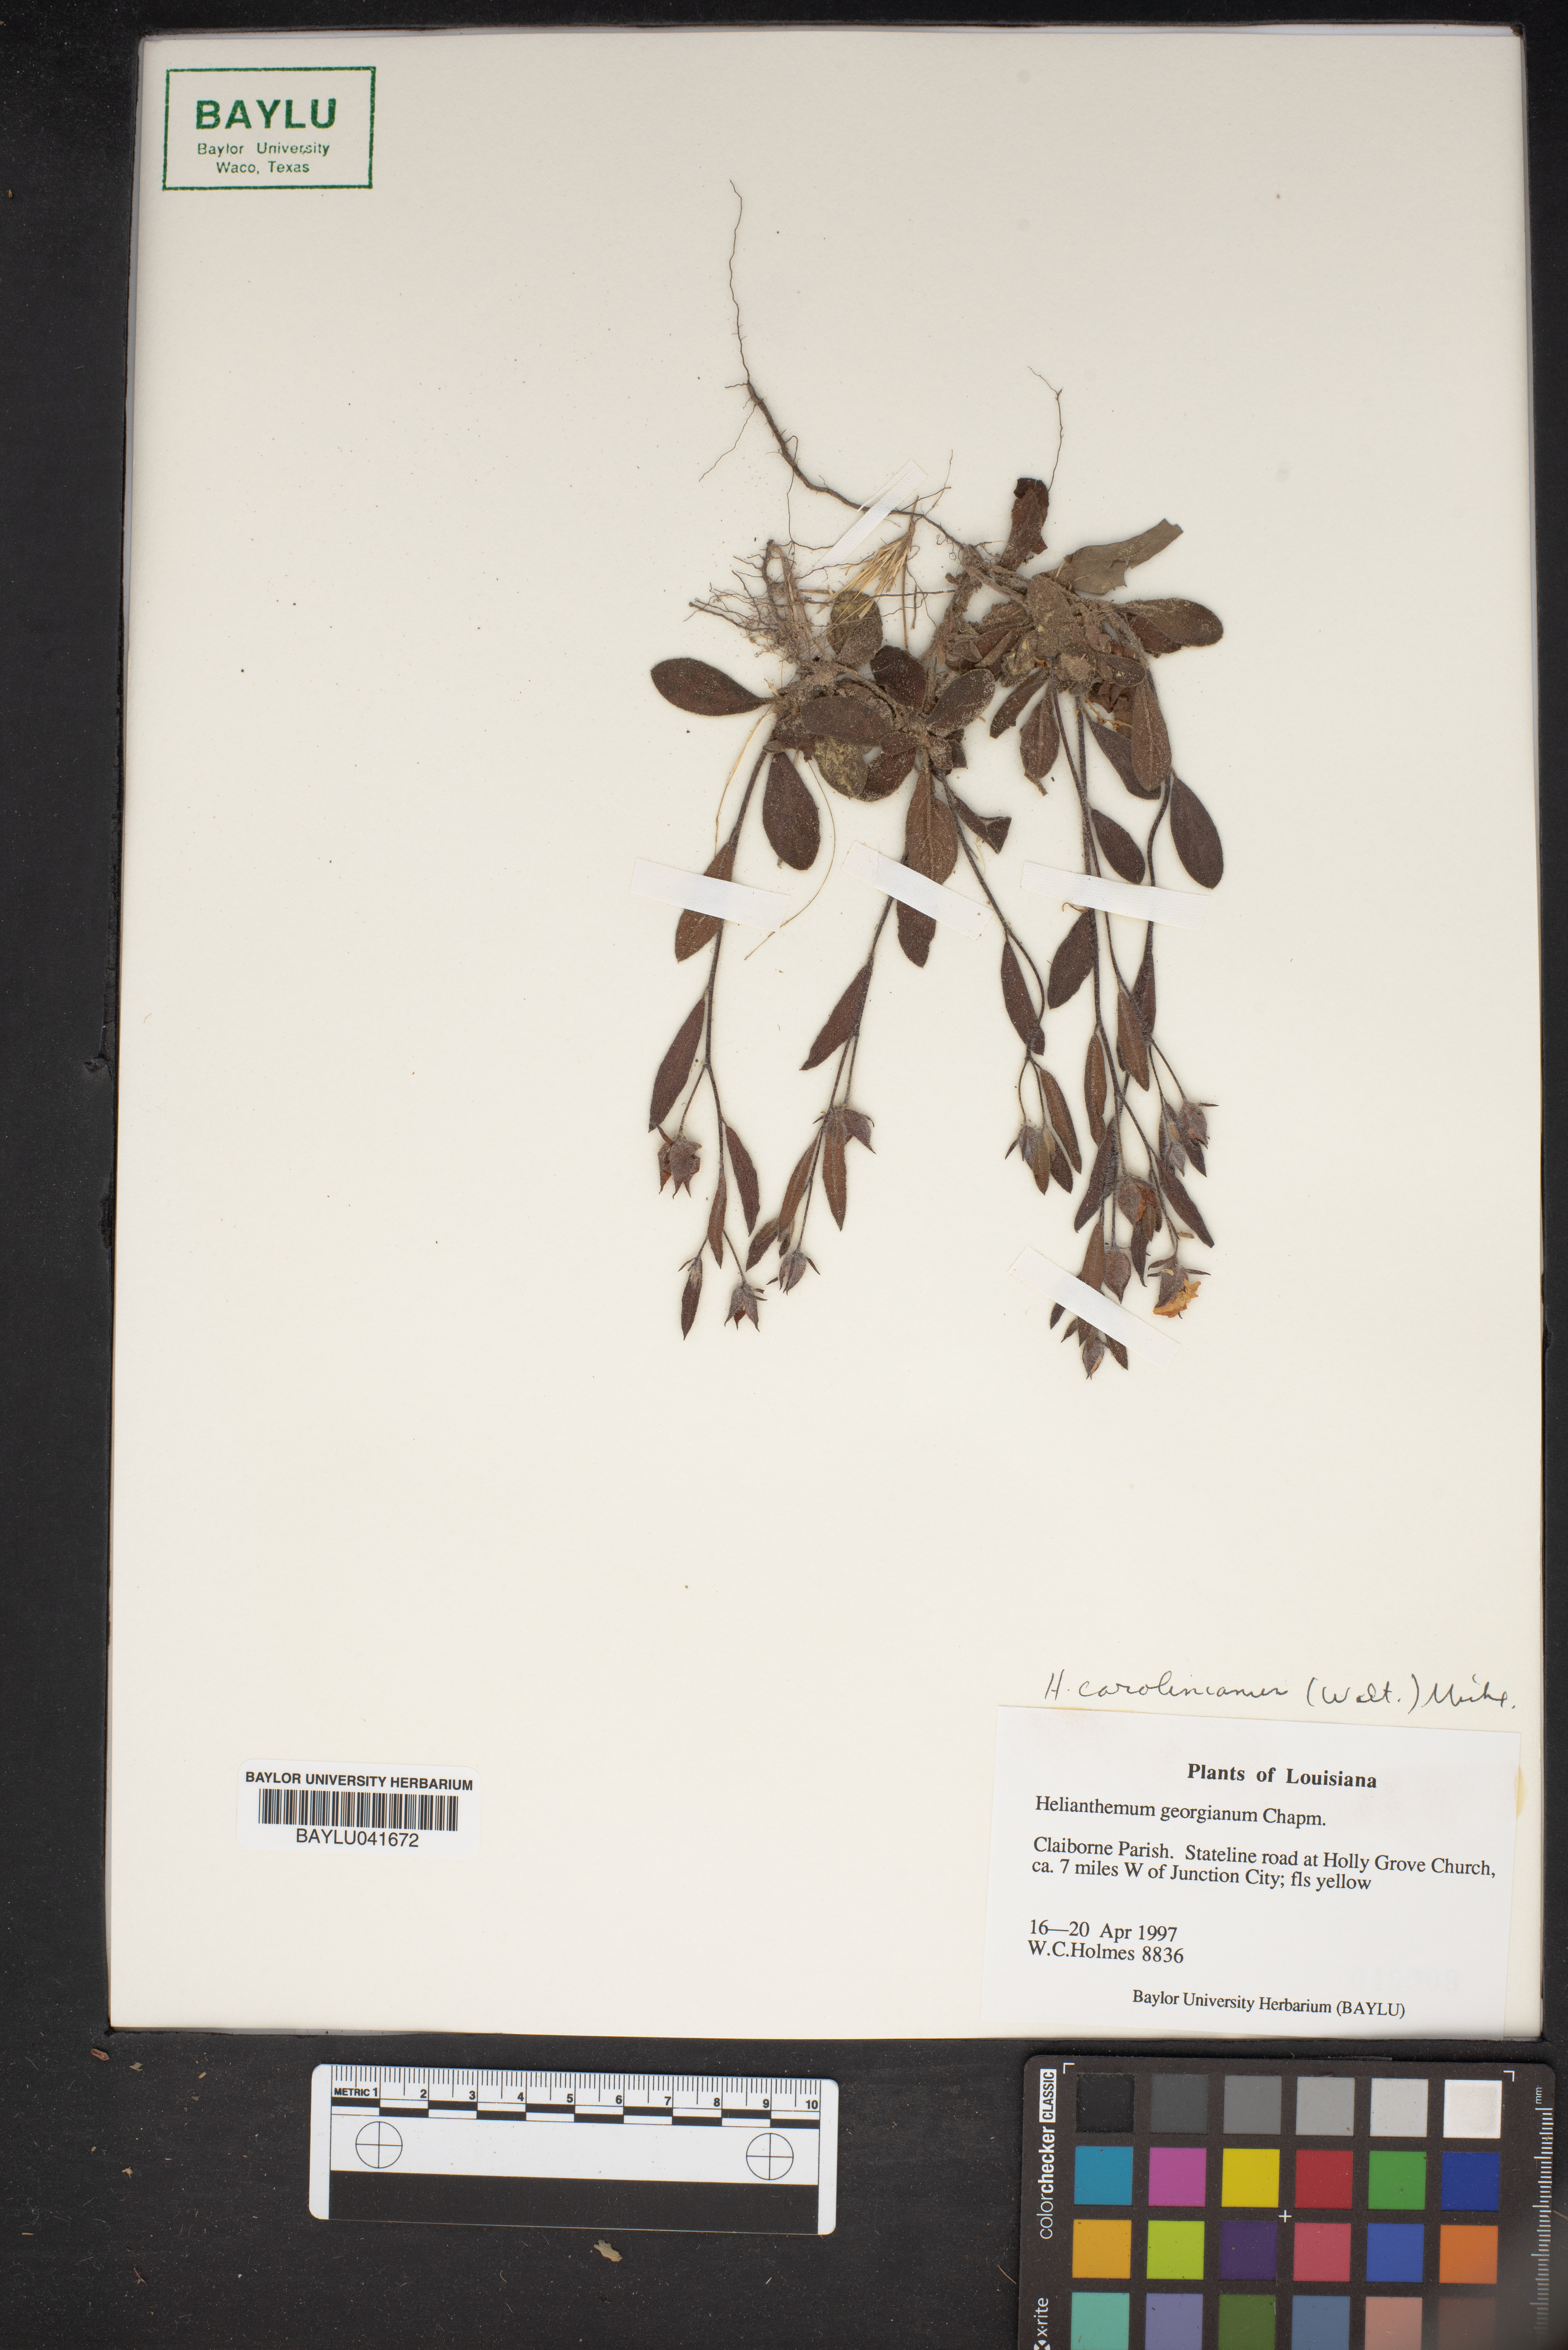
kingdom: Plantae
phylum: Tracheophyta
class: Magnoliopsida
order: Malvales
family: Cistaceae
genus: Crocanthemum
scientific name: Crocanthemum carolinianum
